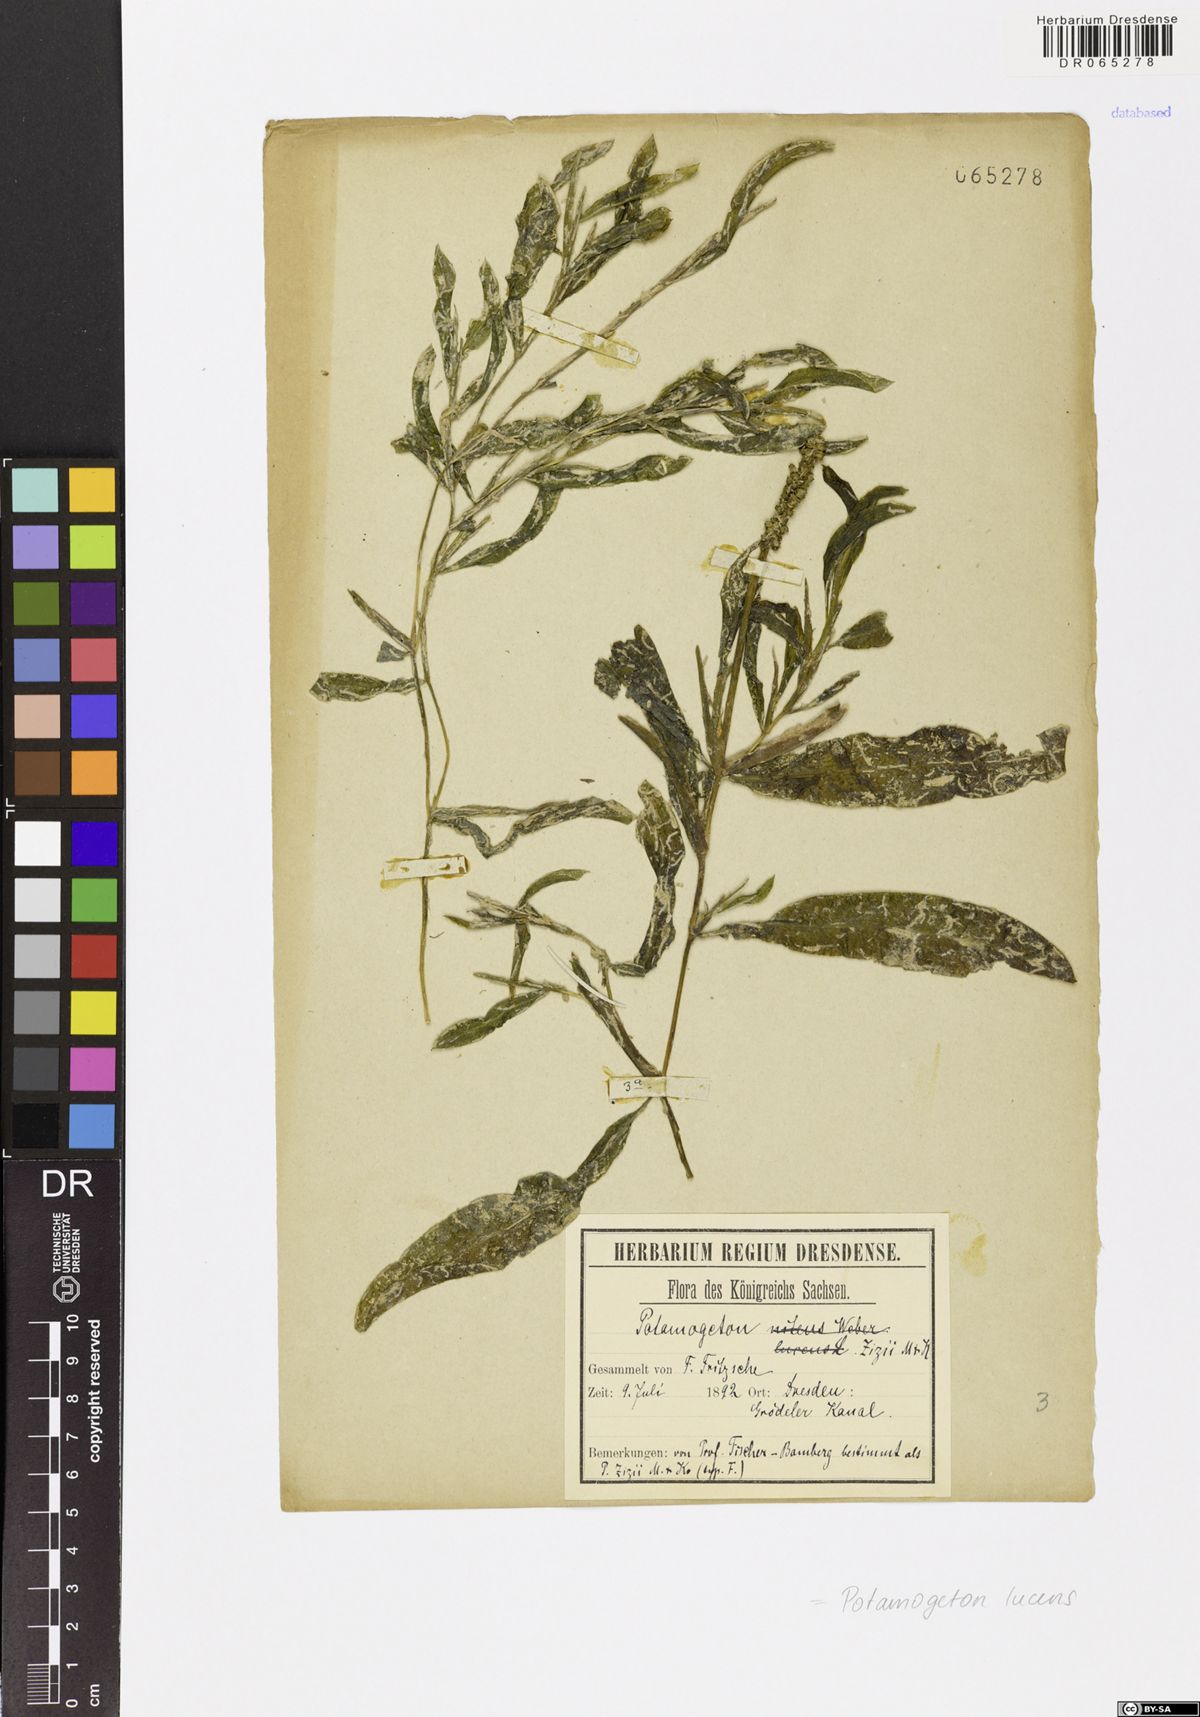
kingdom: Plantae
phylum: Tracheophyta
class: Liliopsida
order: Alismatales
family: Potamogetonaceae
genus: Potamogeton
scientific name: Potamogeton lucens
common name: Shining pondweed
